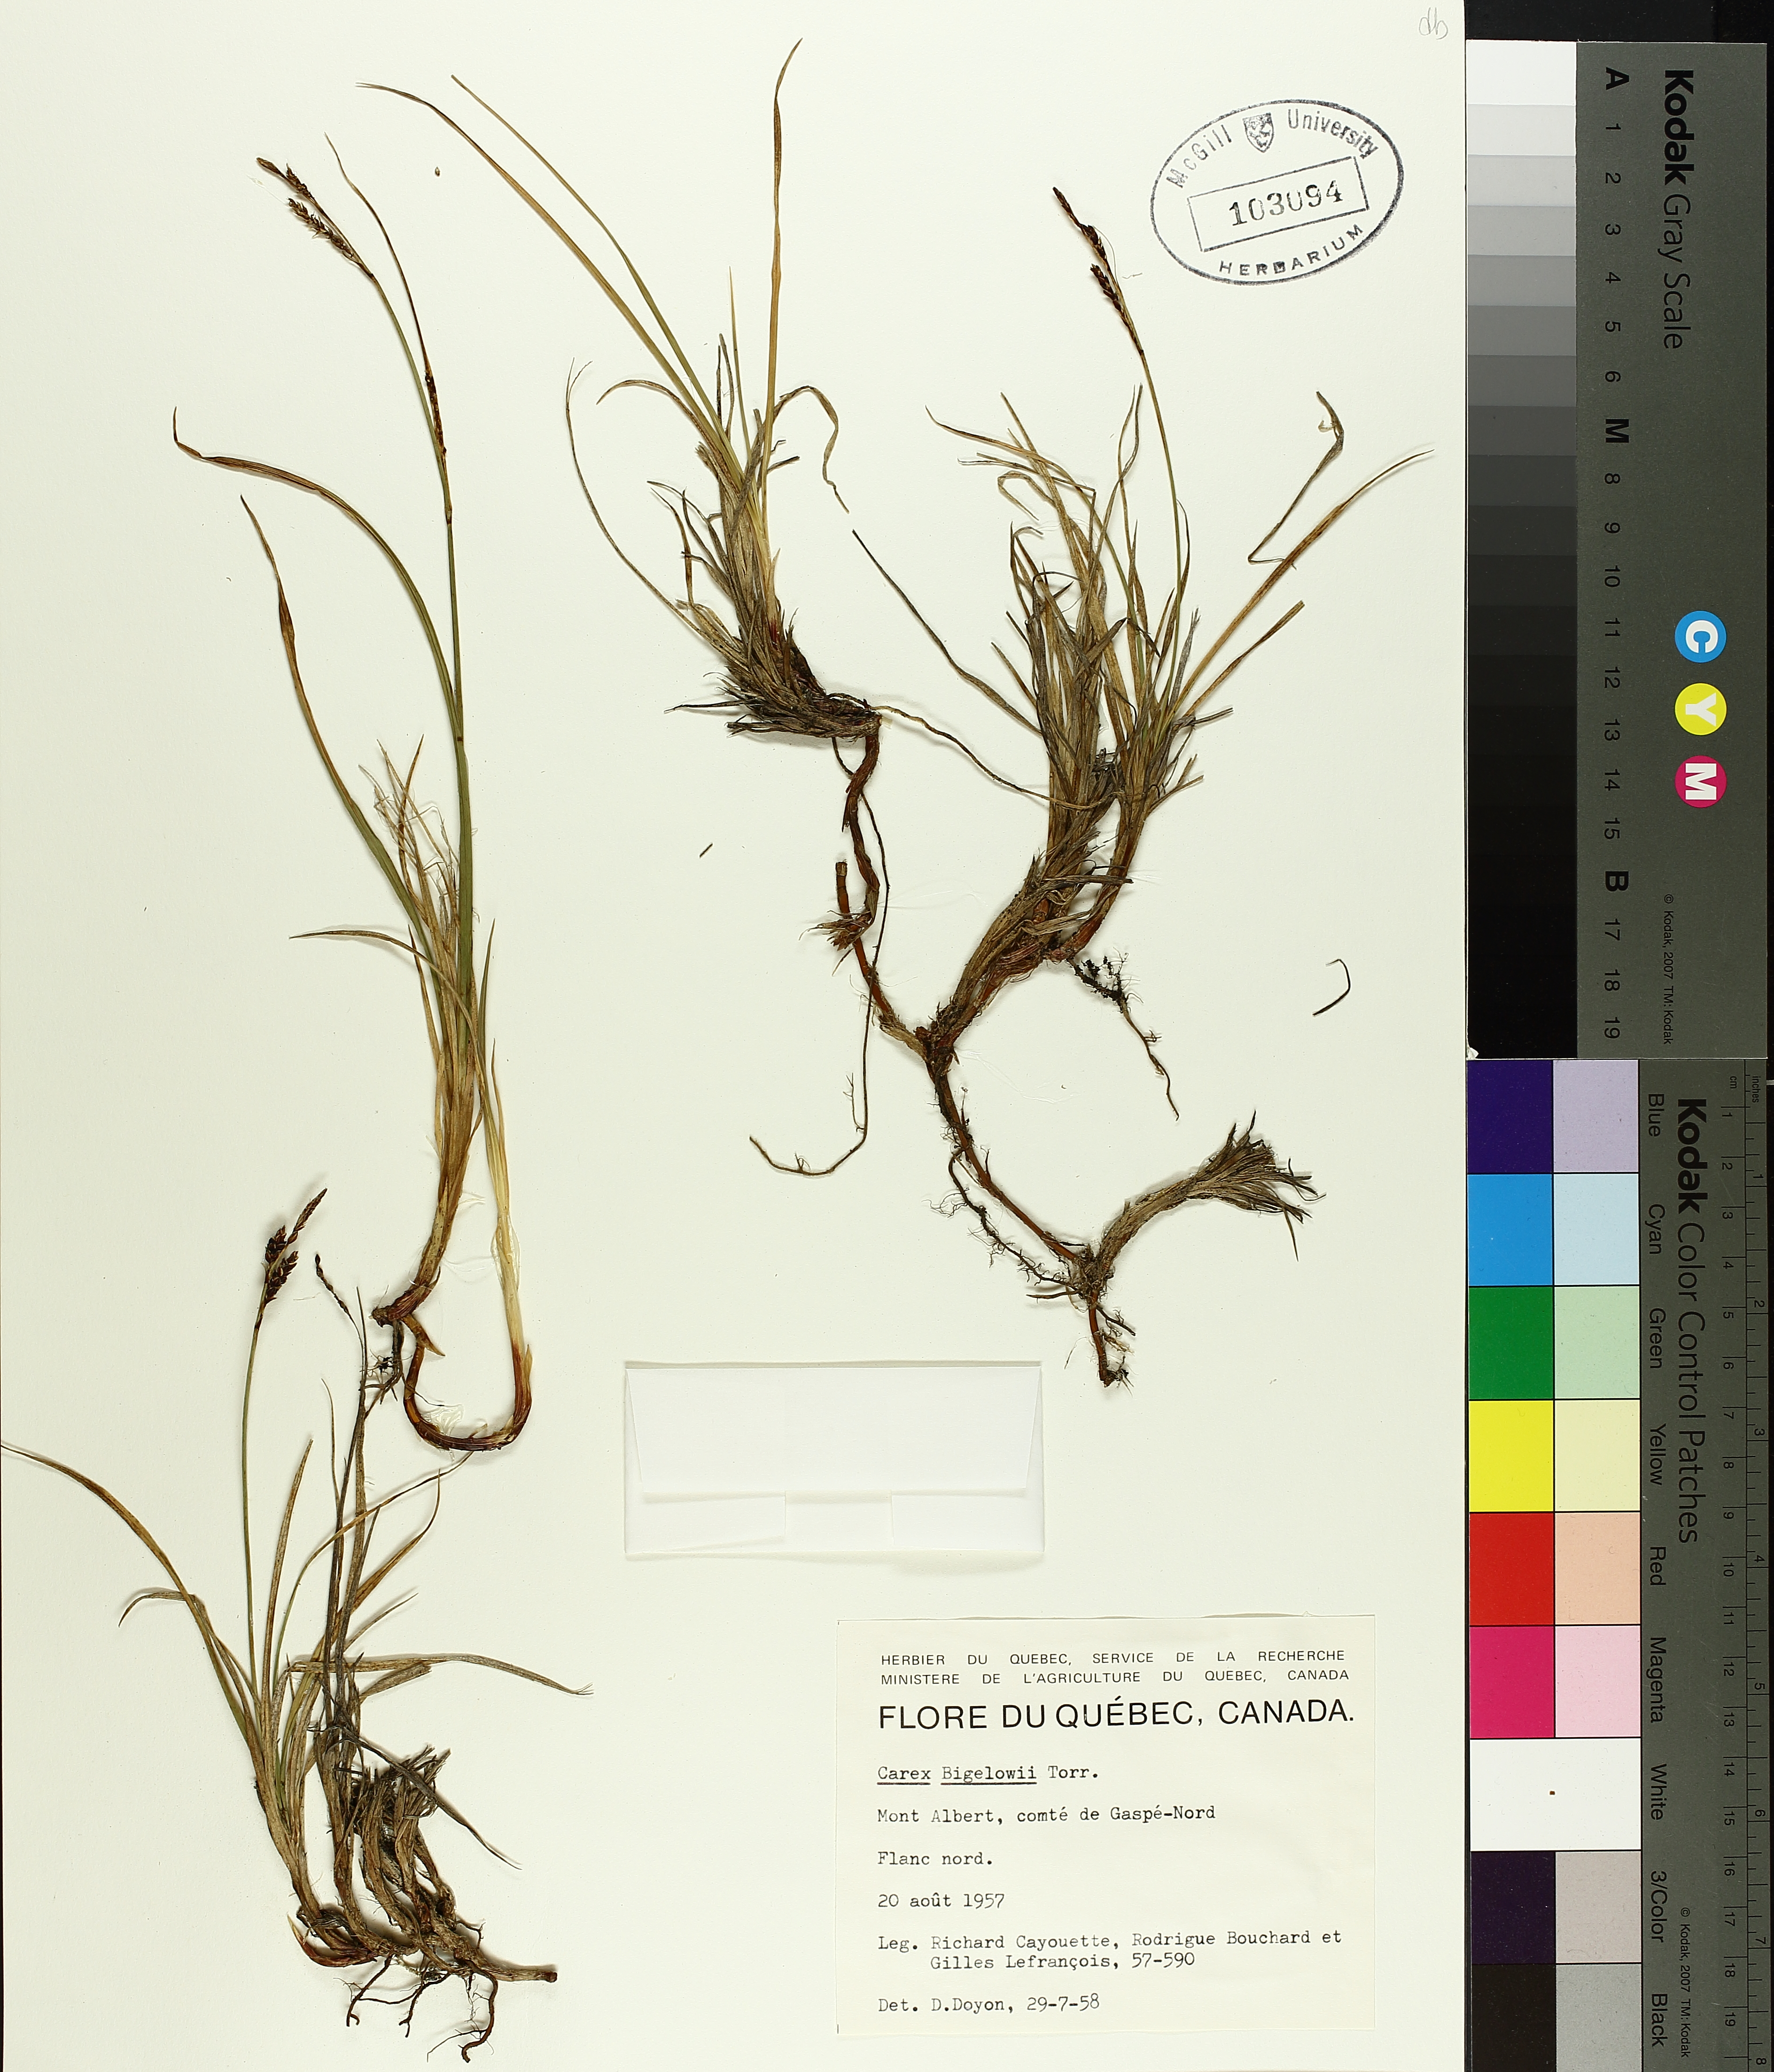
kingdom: Plantae
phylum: Tracheophyta
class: Liliopsida
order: Poales
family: Cyperaceae
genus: Carex
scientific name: Carex bigelowii
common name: Stiff sedge
